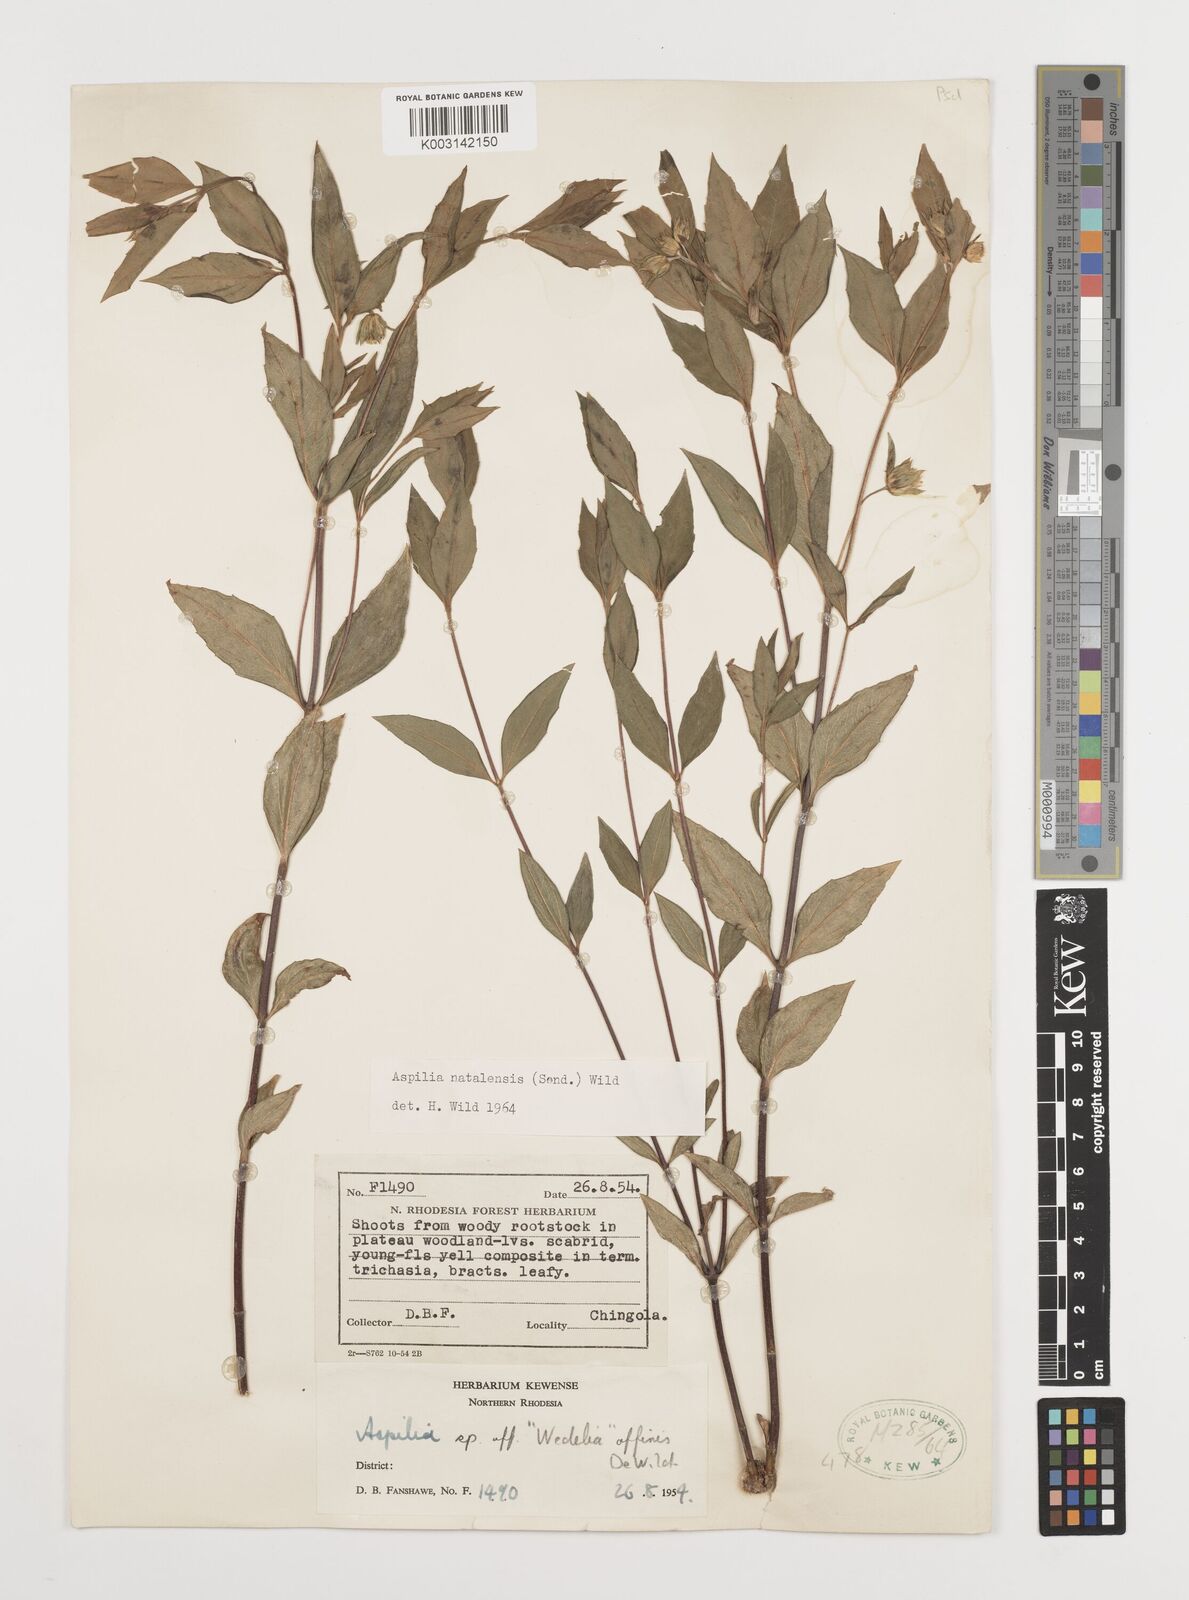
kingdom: Plantae
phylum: Tracheophyta
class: Magnoliopsida
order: Asterales
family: Asteraceae
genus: Aspilia
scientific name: Aspilia natalensis
